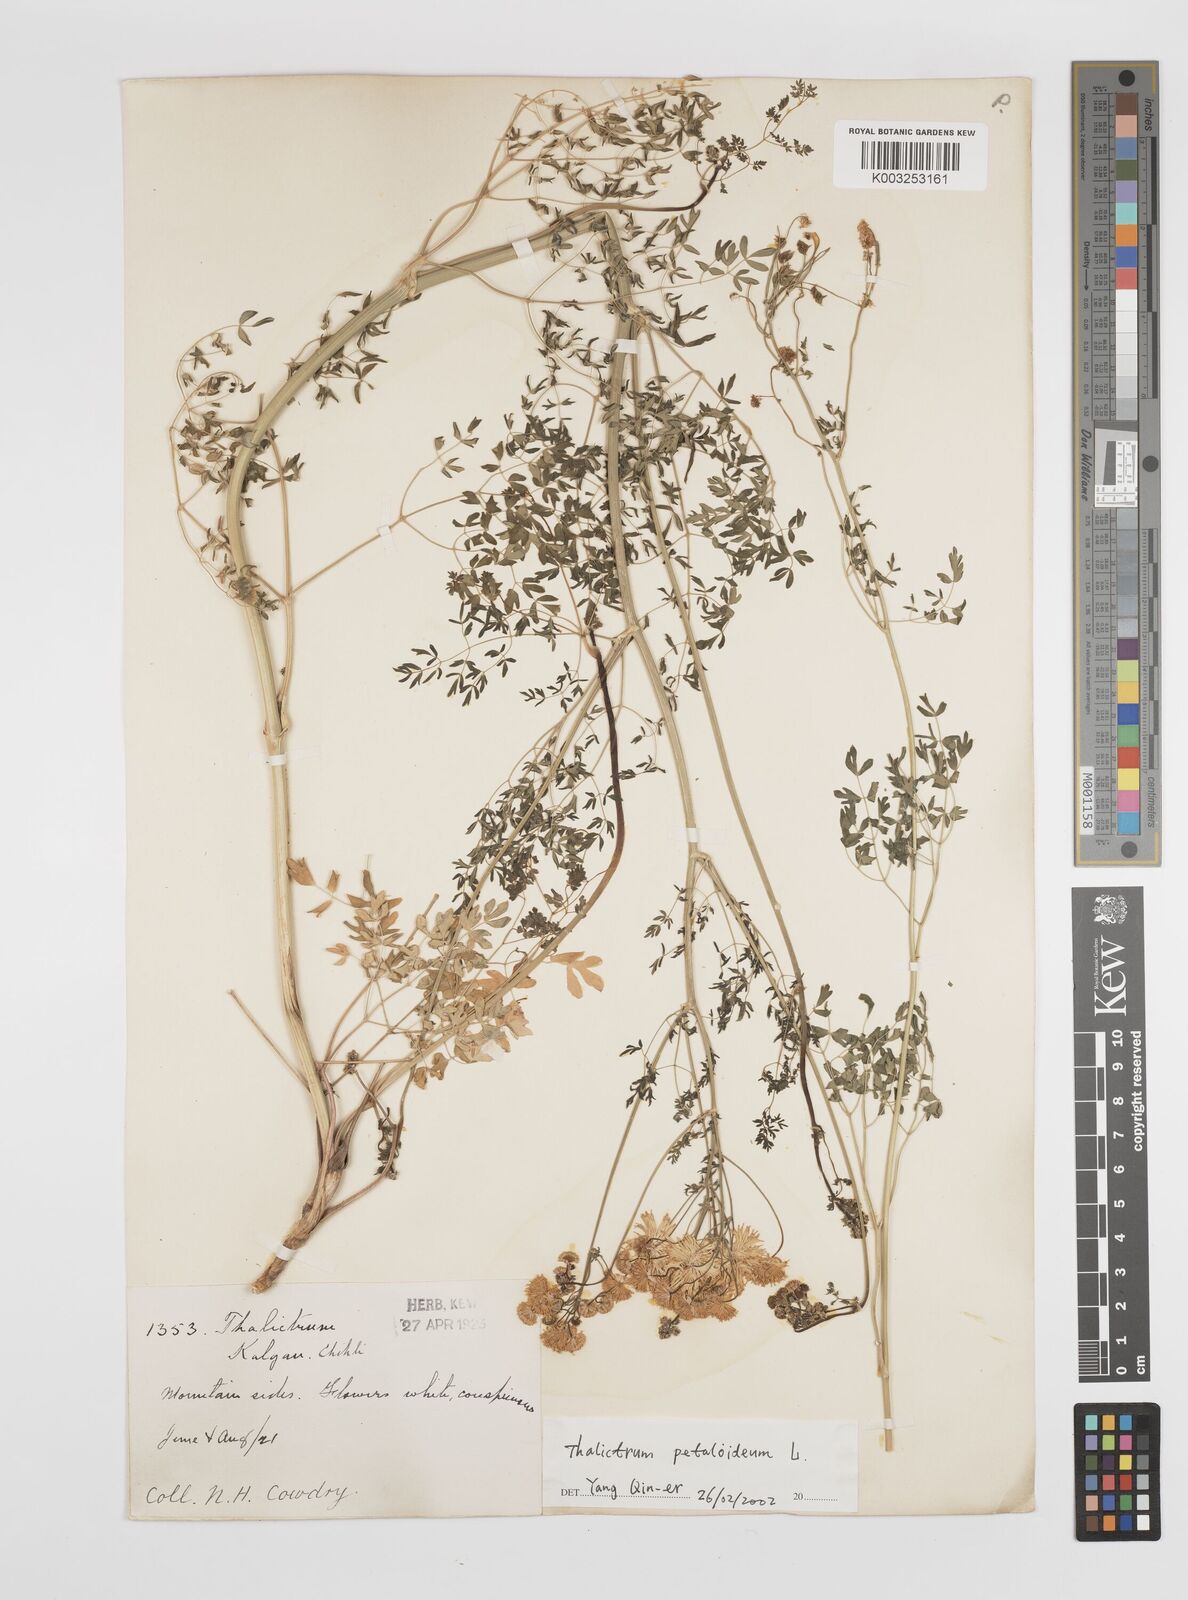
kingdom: Plantae
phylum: Tracheophyta
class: Magnoliopsida
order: Ranunculales
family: Ranunculaceae
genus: Thalictrum
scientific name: Thalictrum petaloideum
